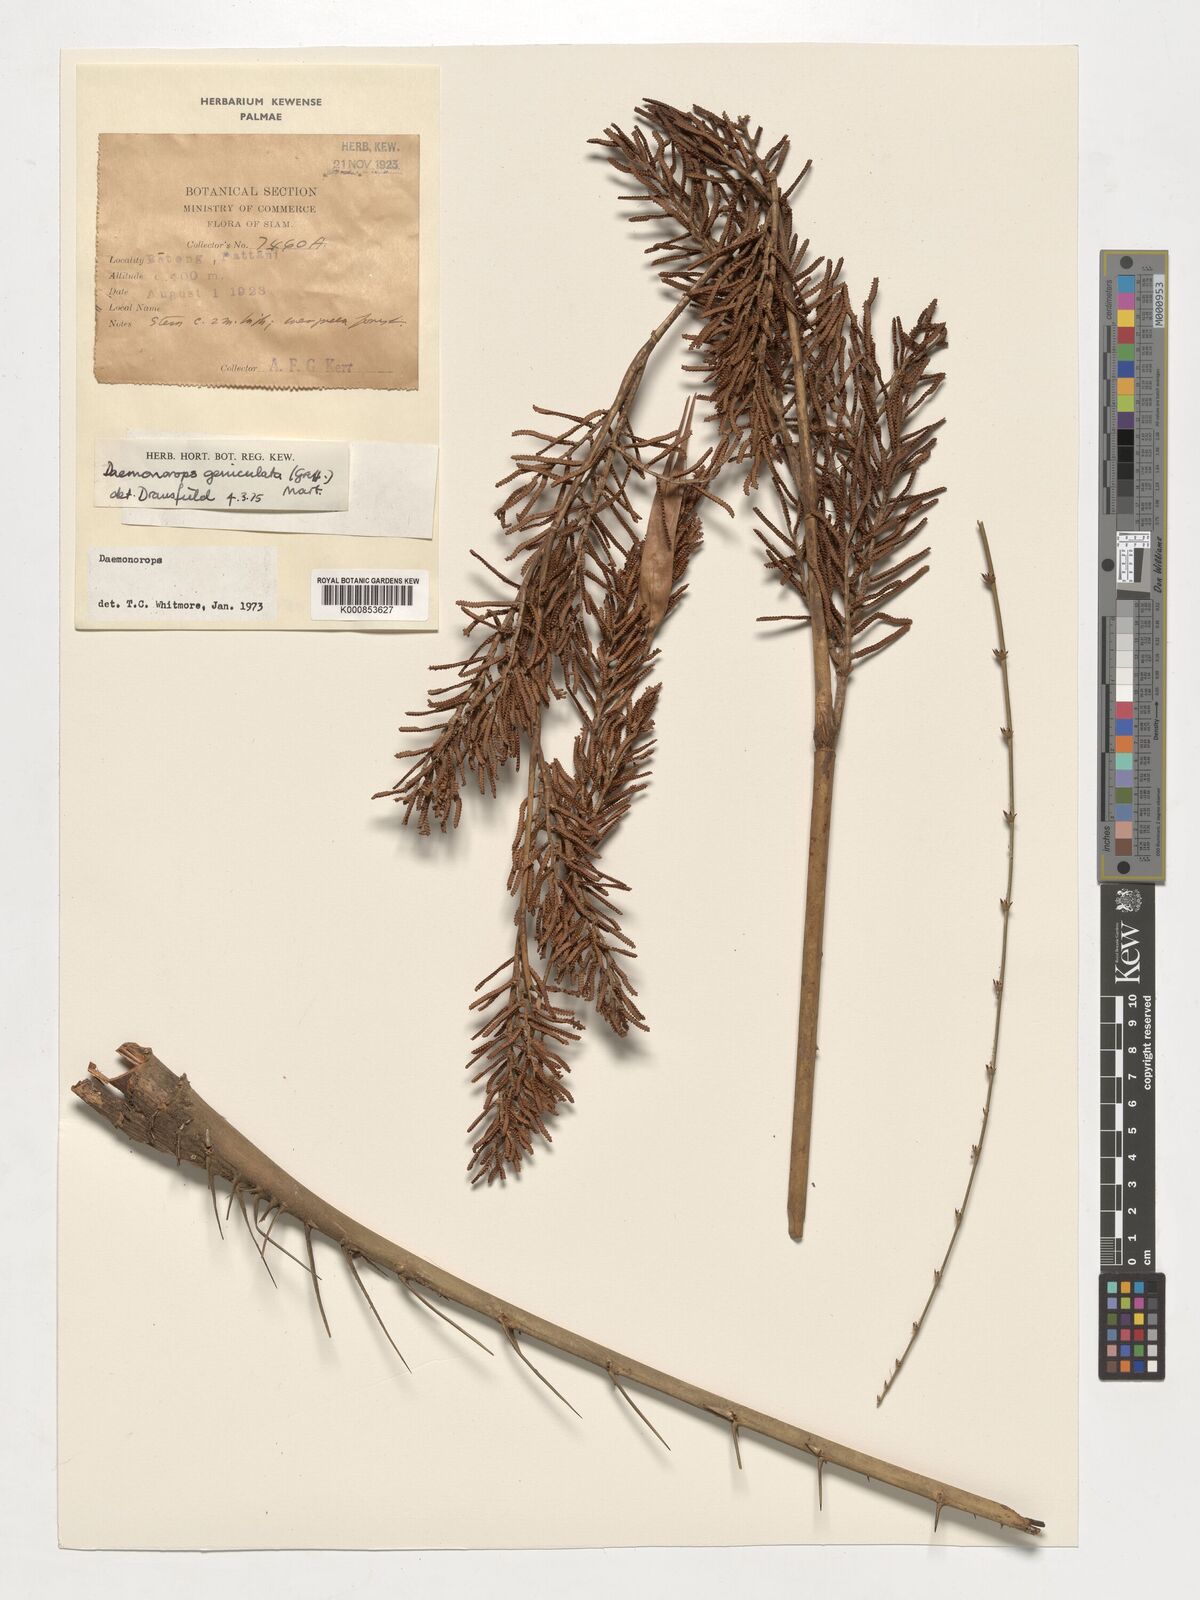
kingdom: Plantae
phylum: Tracheophyta
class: Liliopsida
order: Arecales
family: Arecaceae
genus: Calamus
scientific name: Calamus geniculatus
